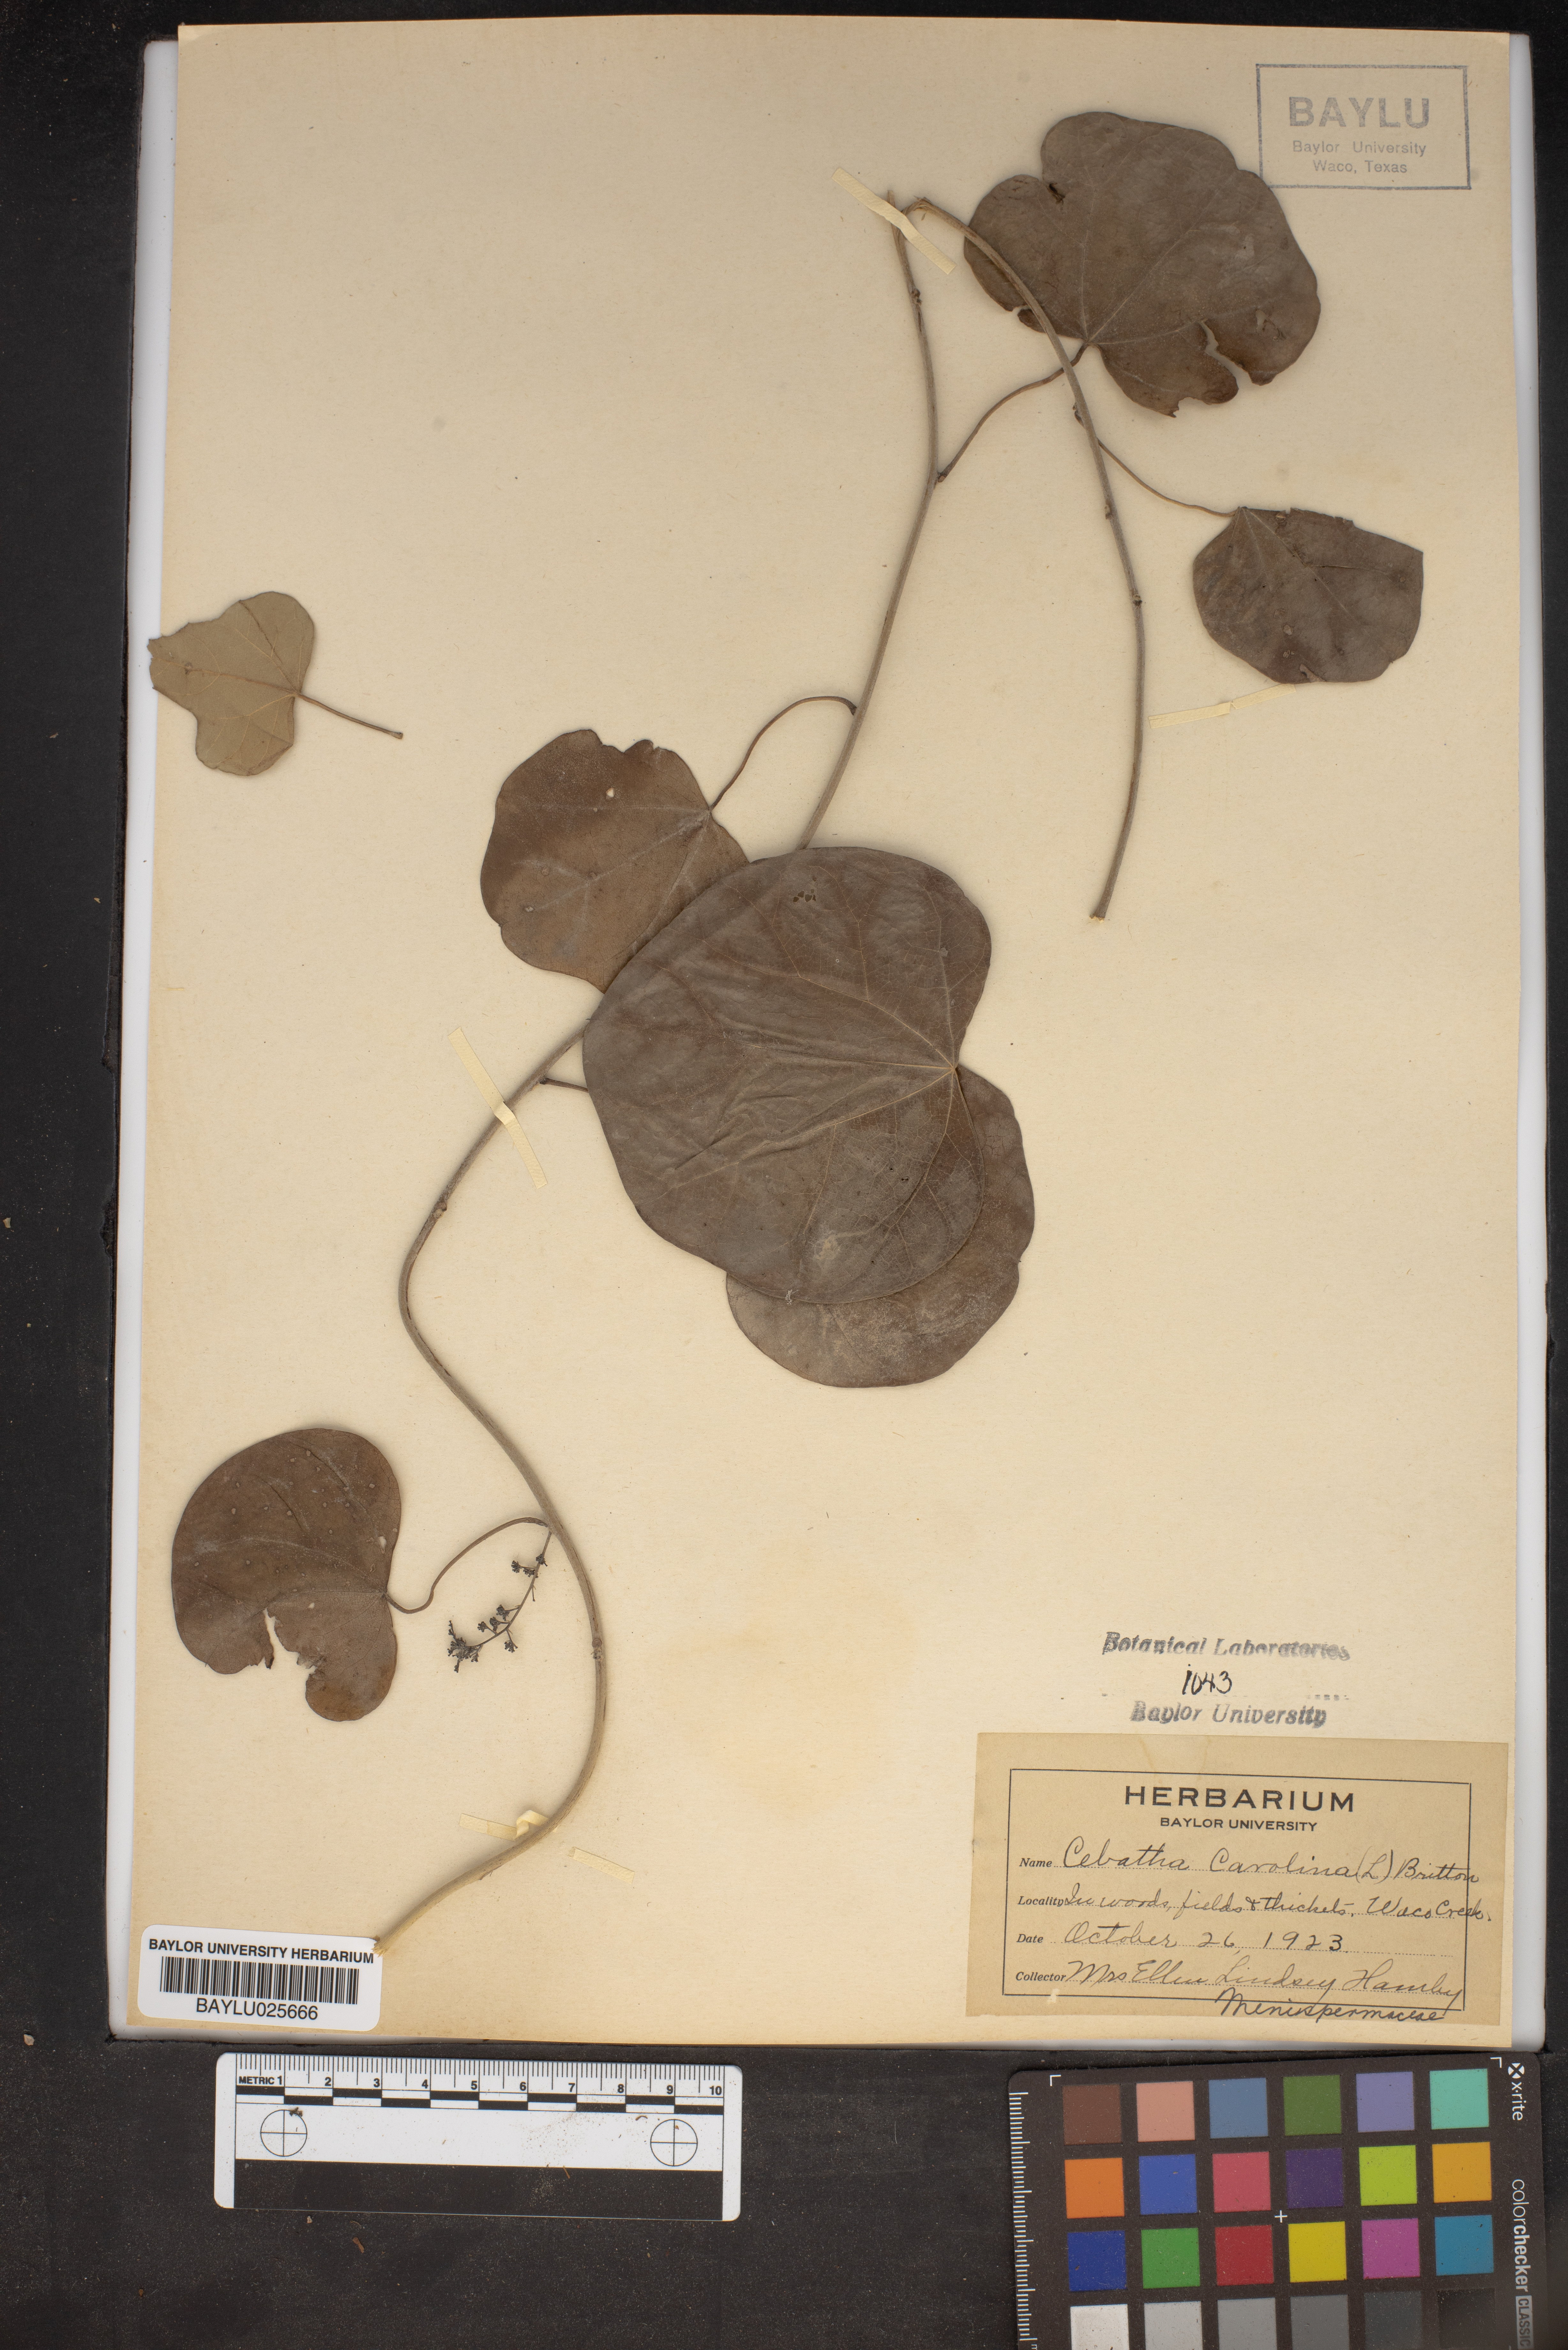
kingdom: Plantae
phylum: Tracheophyta
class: Magnoliopsida
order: Ranunculales
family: Menispermaceae
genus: Cocculus
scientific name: Cocculus carolinus
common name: Carolina moonseed
